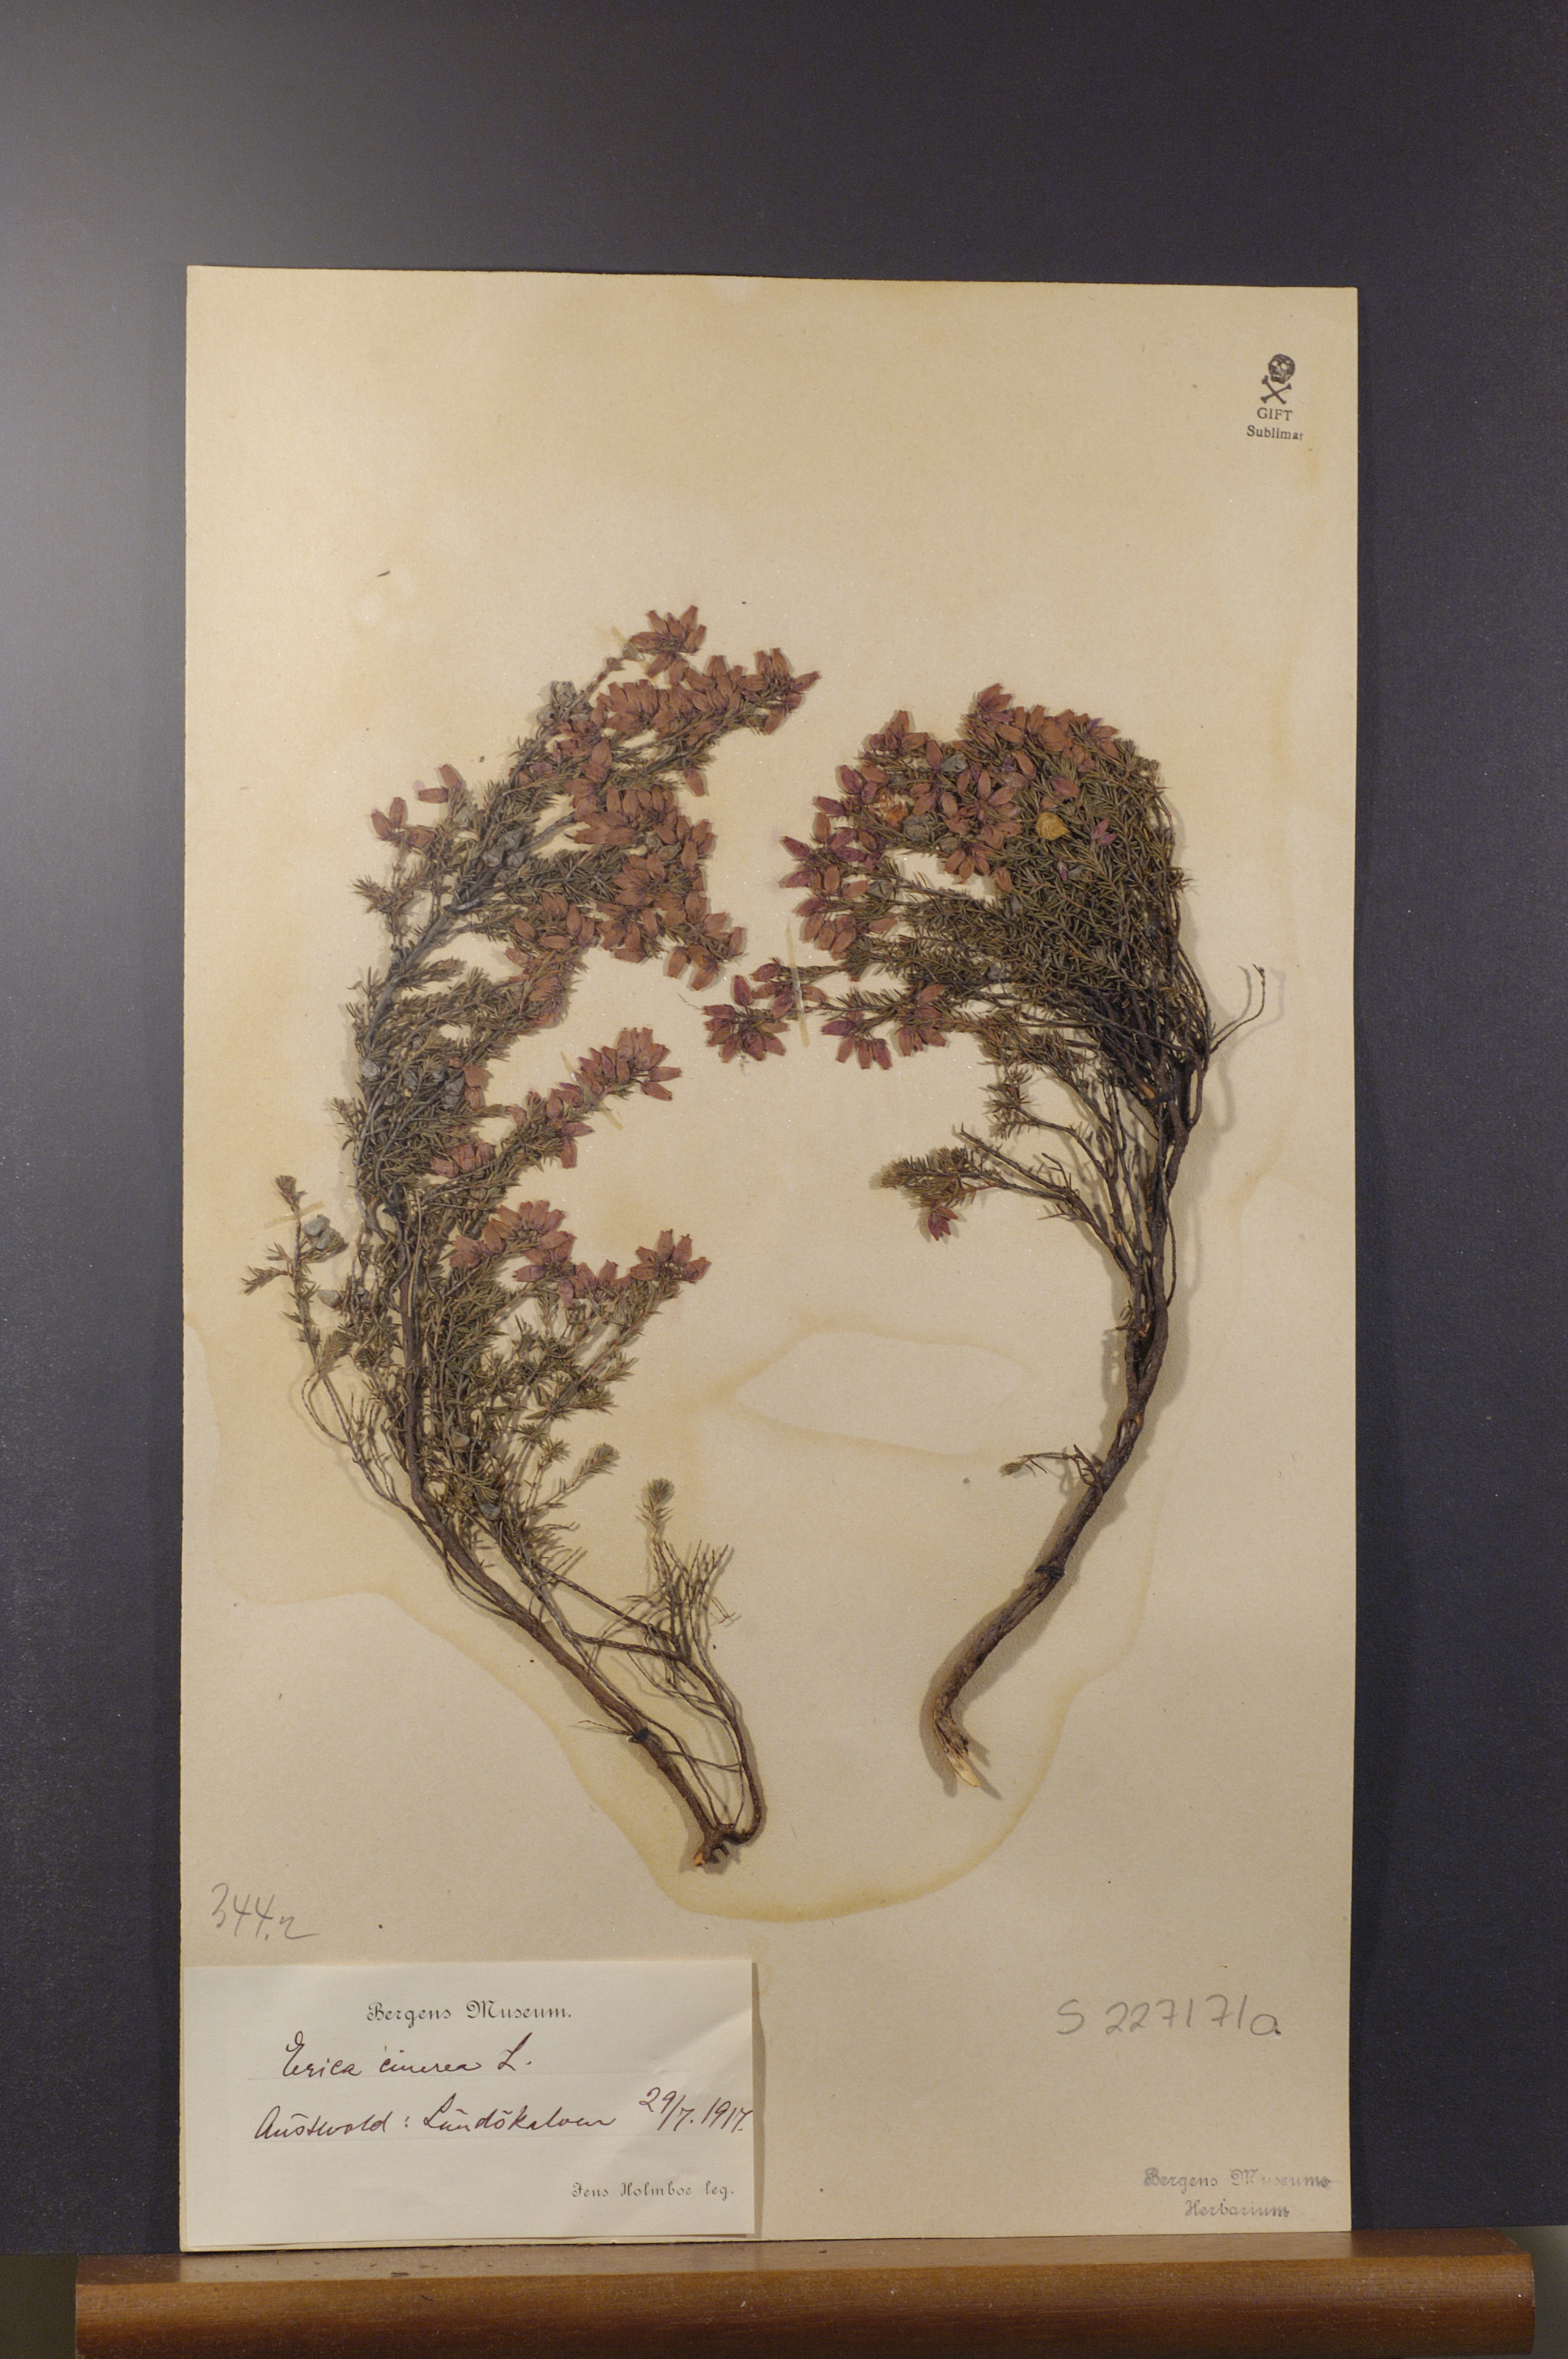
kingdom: Plantae
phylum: Tracheophyta
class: Magnoliopsida
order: Ericales
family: Ericaceae
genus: Erica
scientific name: Erica cinerea
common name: Bell heather
